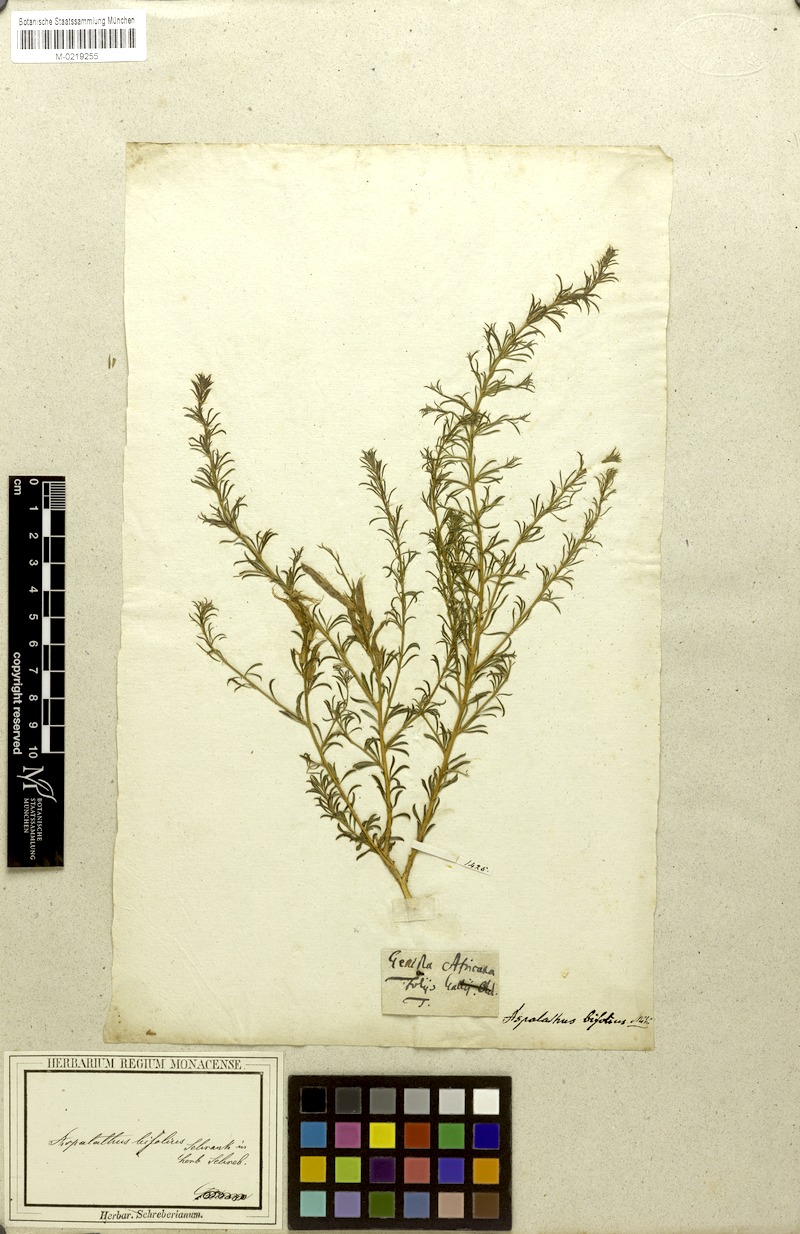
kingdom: Plantae
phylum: Tracheophyta
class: Magnoliopsida
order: Fabales
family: Fabaceae
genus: Aspalathus
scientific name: Aspalathus
